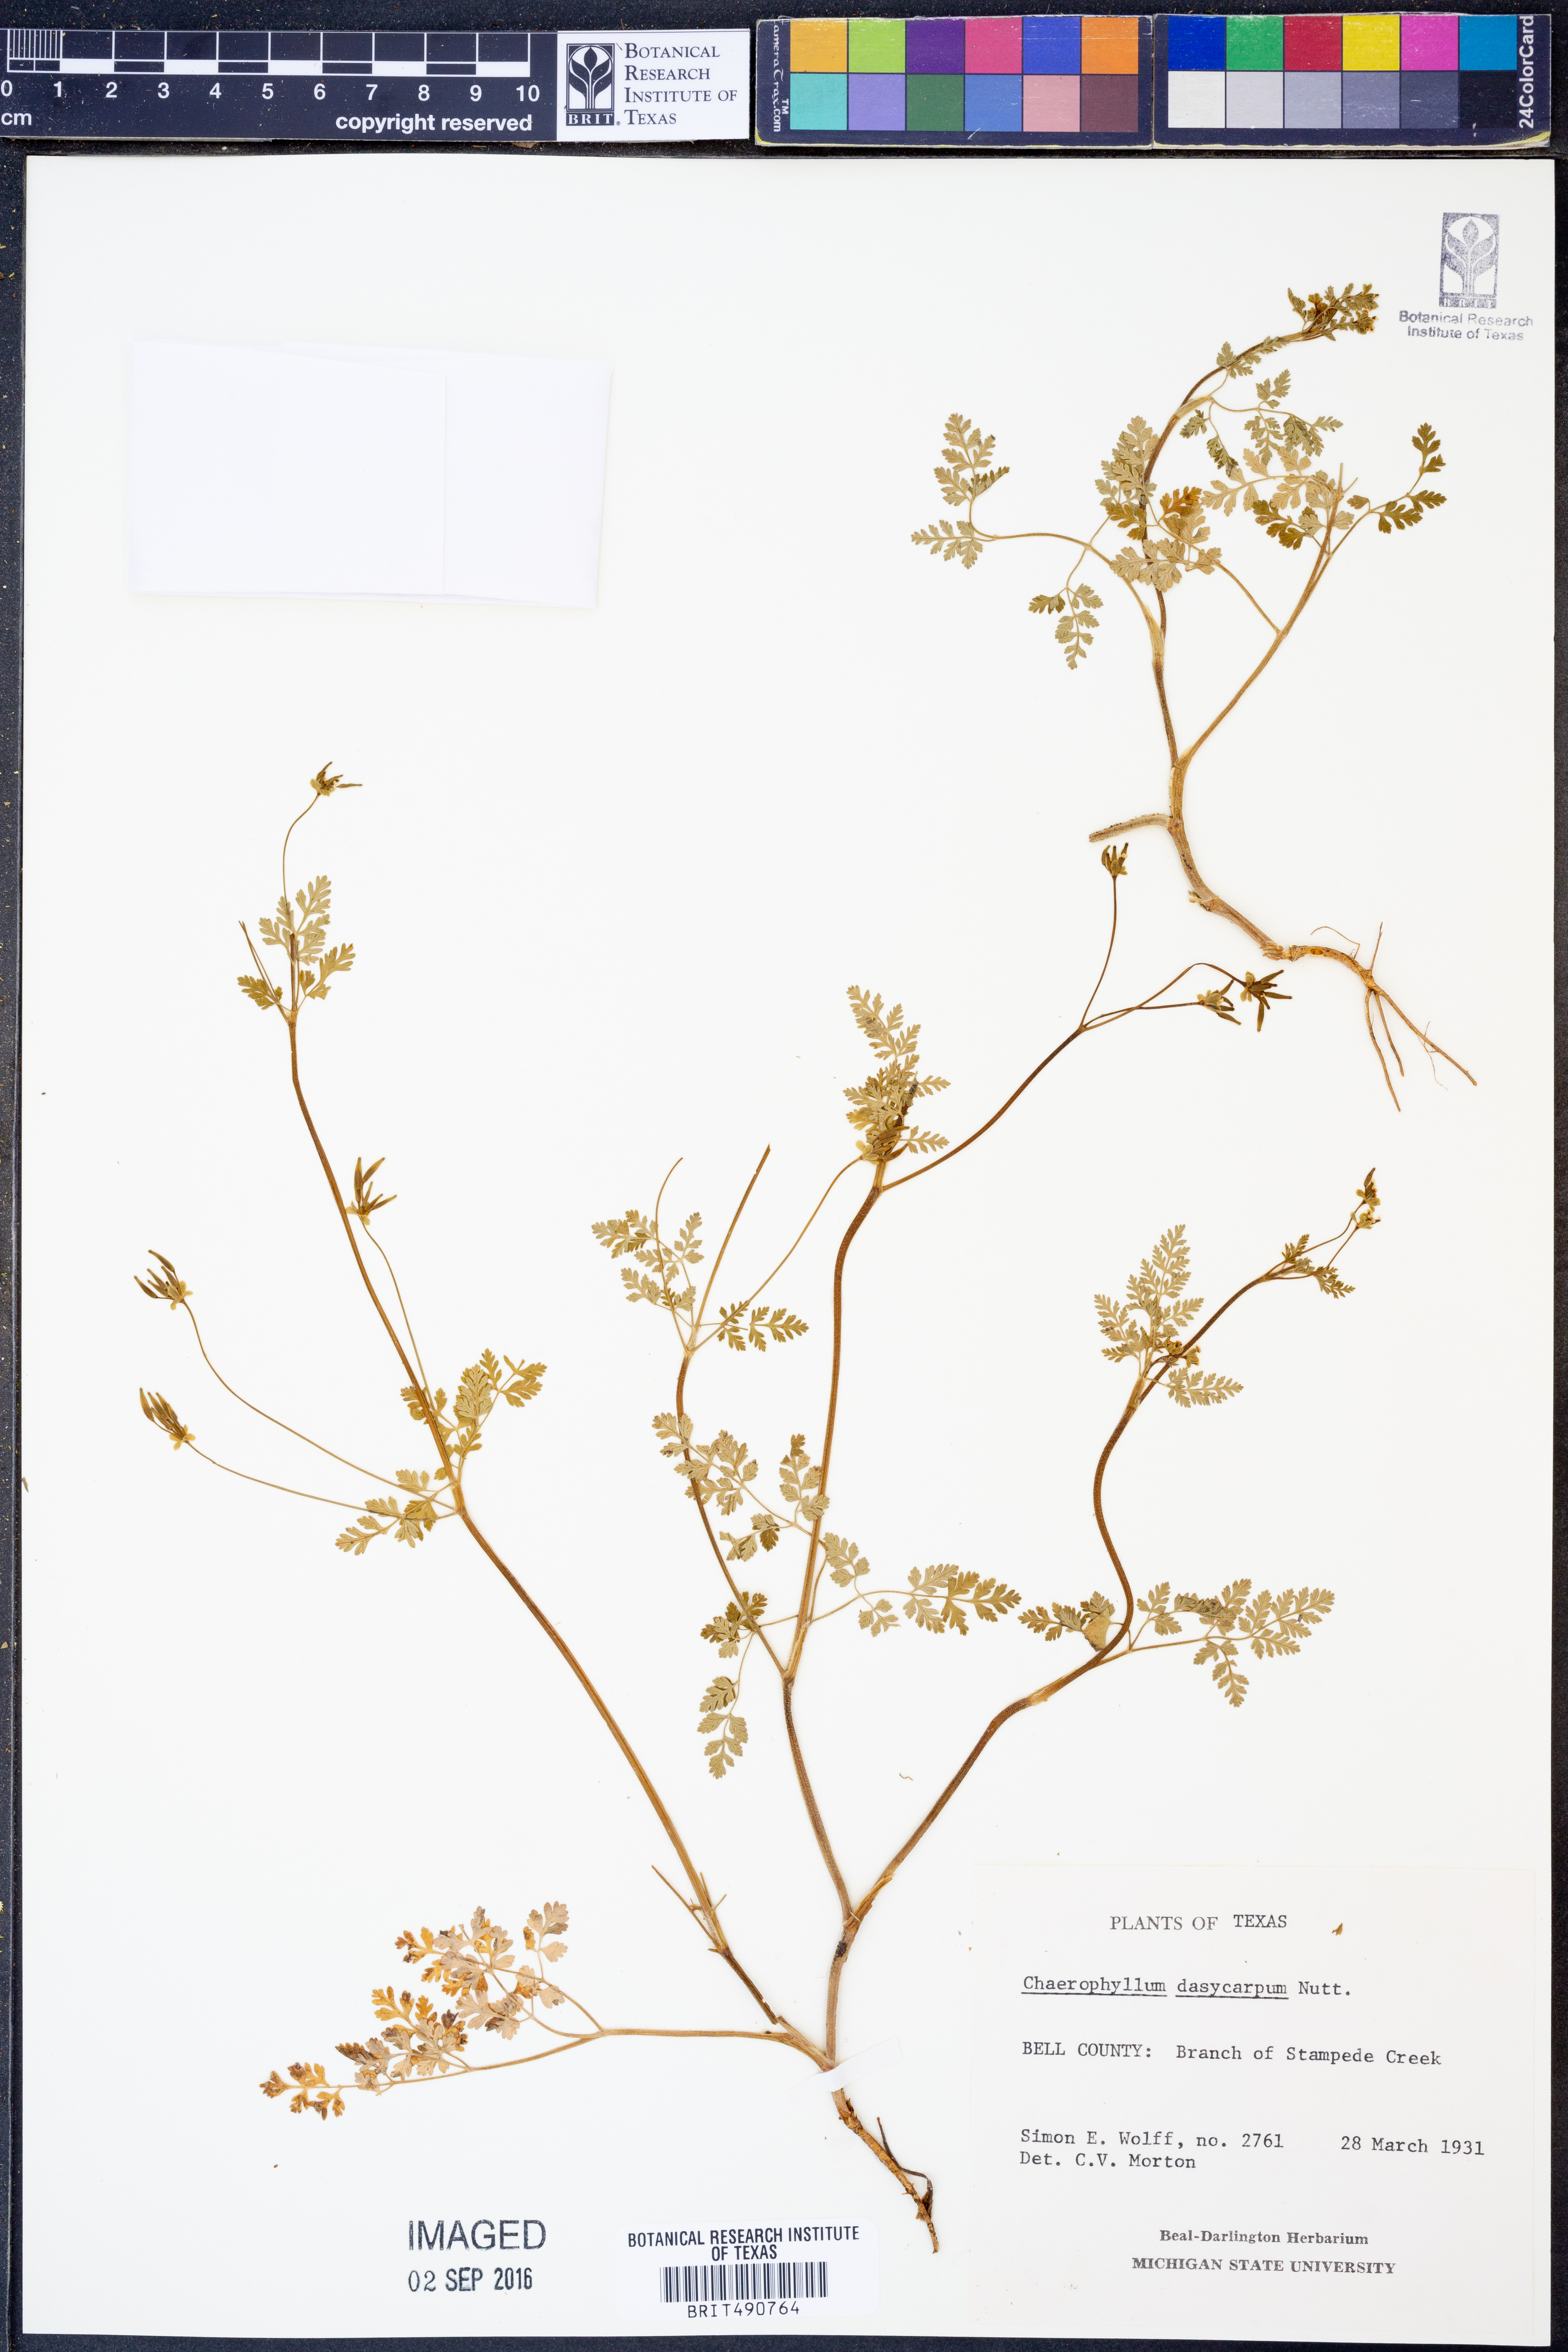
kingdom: Plantae
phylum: Tracheophyta
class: Magnoliopsida
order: Apiales
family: Apiaceae
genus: Chaerophyllum
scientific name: Chaerophyllum dasycarpum
